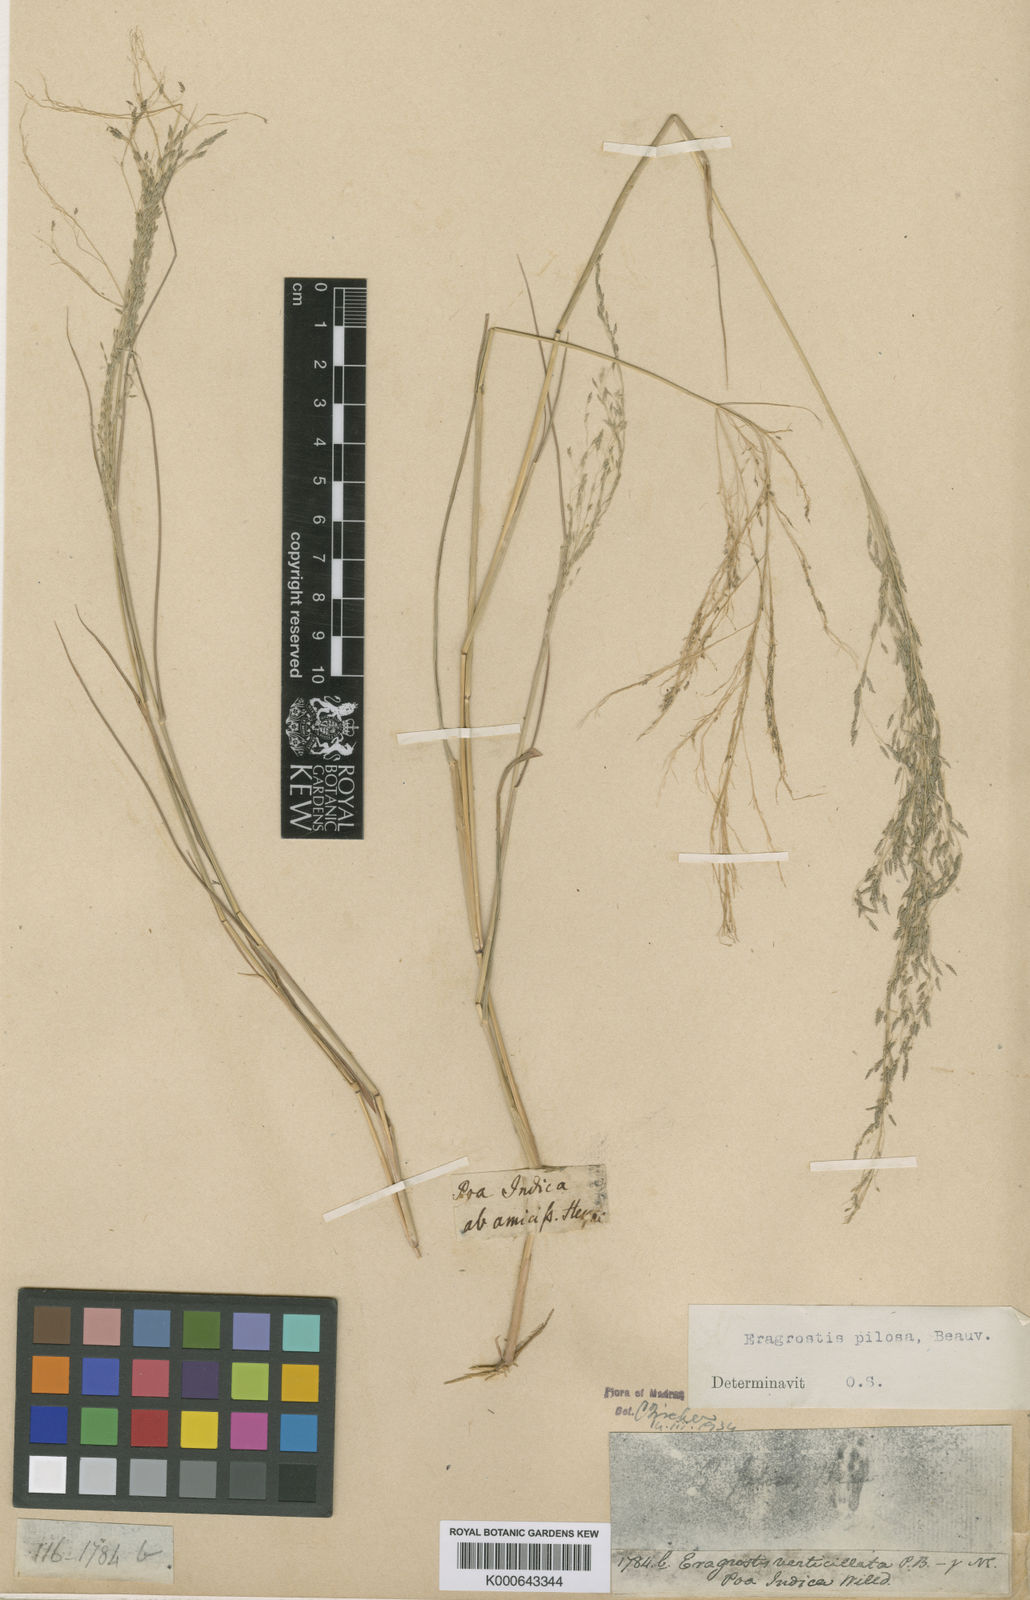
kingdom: Plantae
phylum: Tracheophyta
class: Liliopsida
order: Poales
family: Poaceae
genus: Eragrostis
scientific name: Eragrostis pilosa
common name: Indian lovegrass
